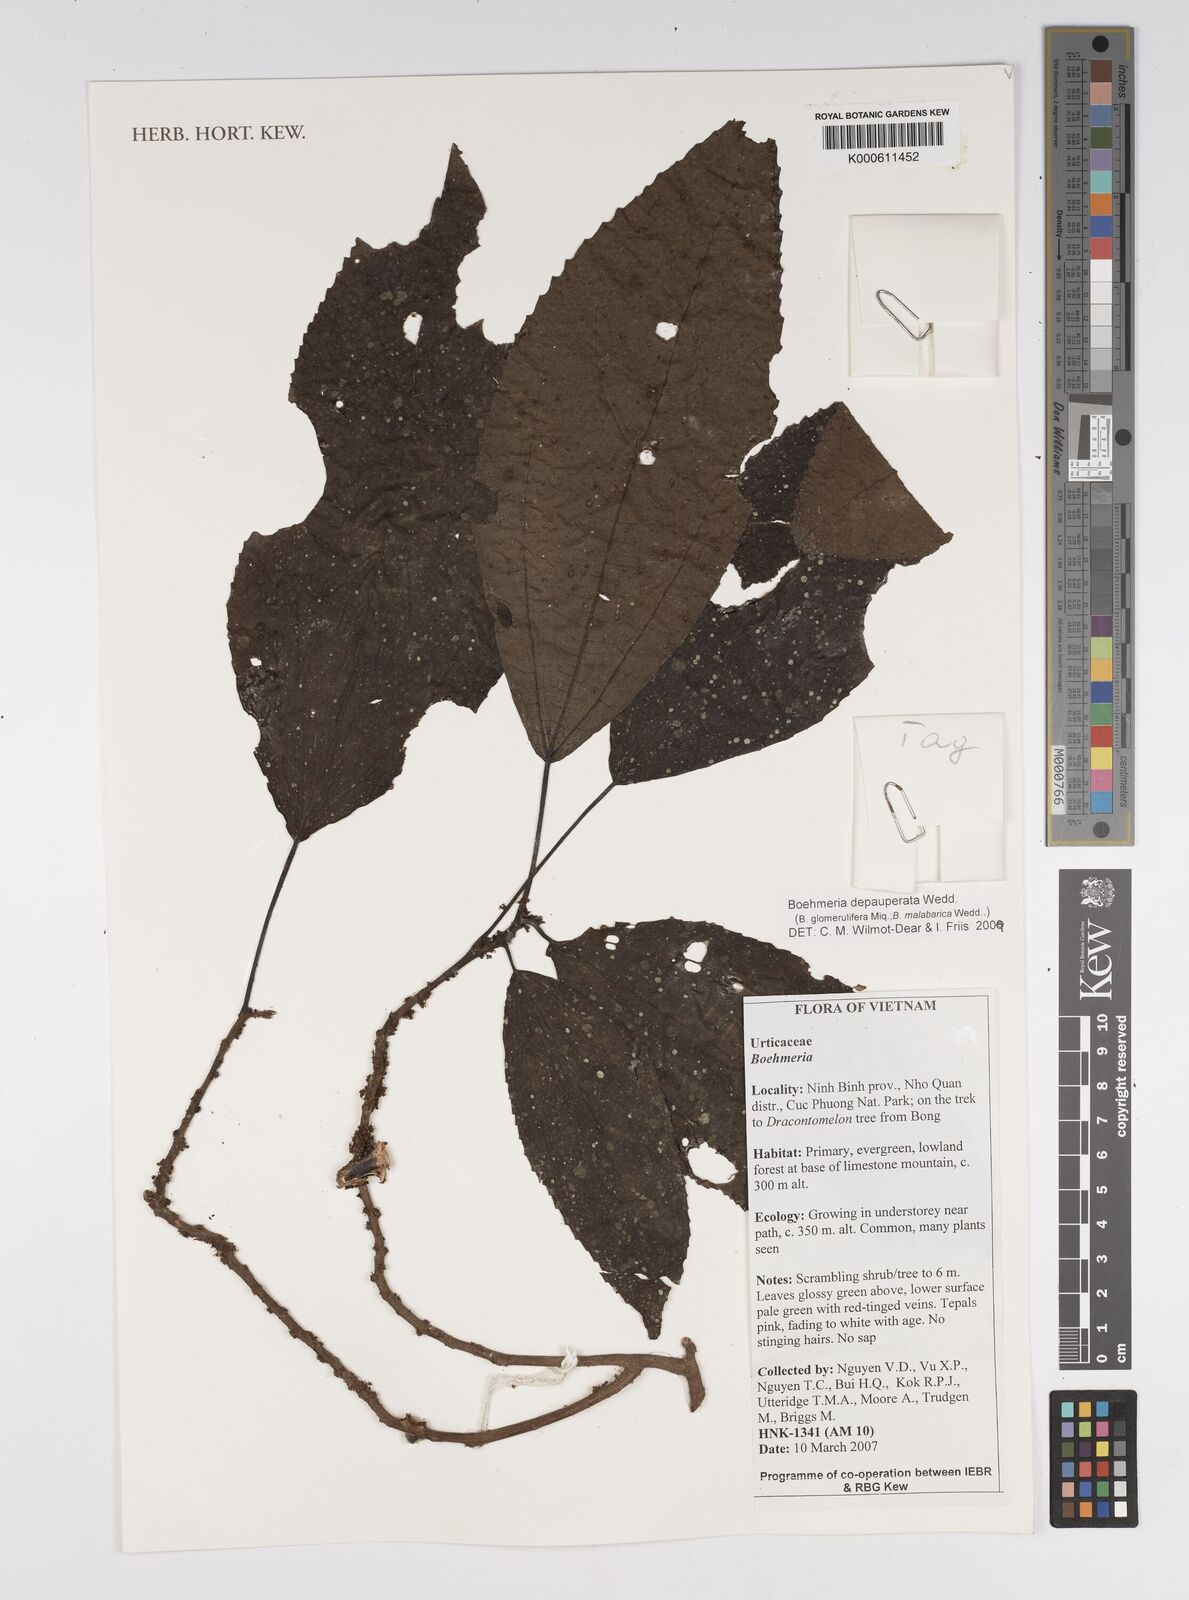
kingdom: Plantae
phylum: Tracheophyta
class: Magnoliopsida
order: Rosales
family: Urticaceae
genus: Boehmeria
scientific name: Boehmeria depauperata
